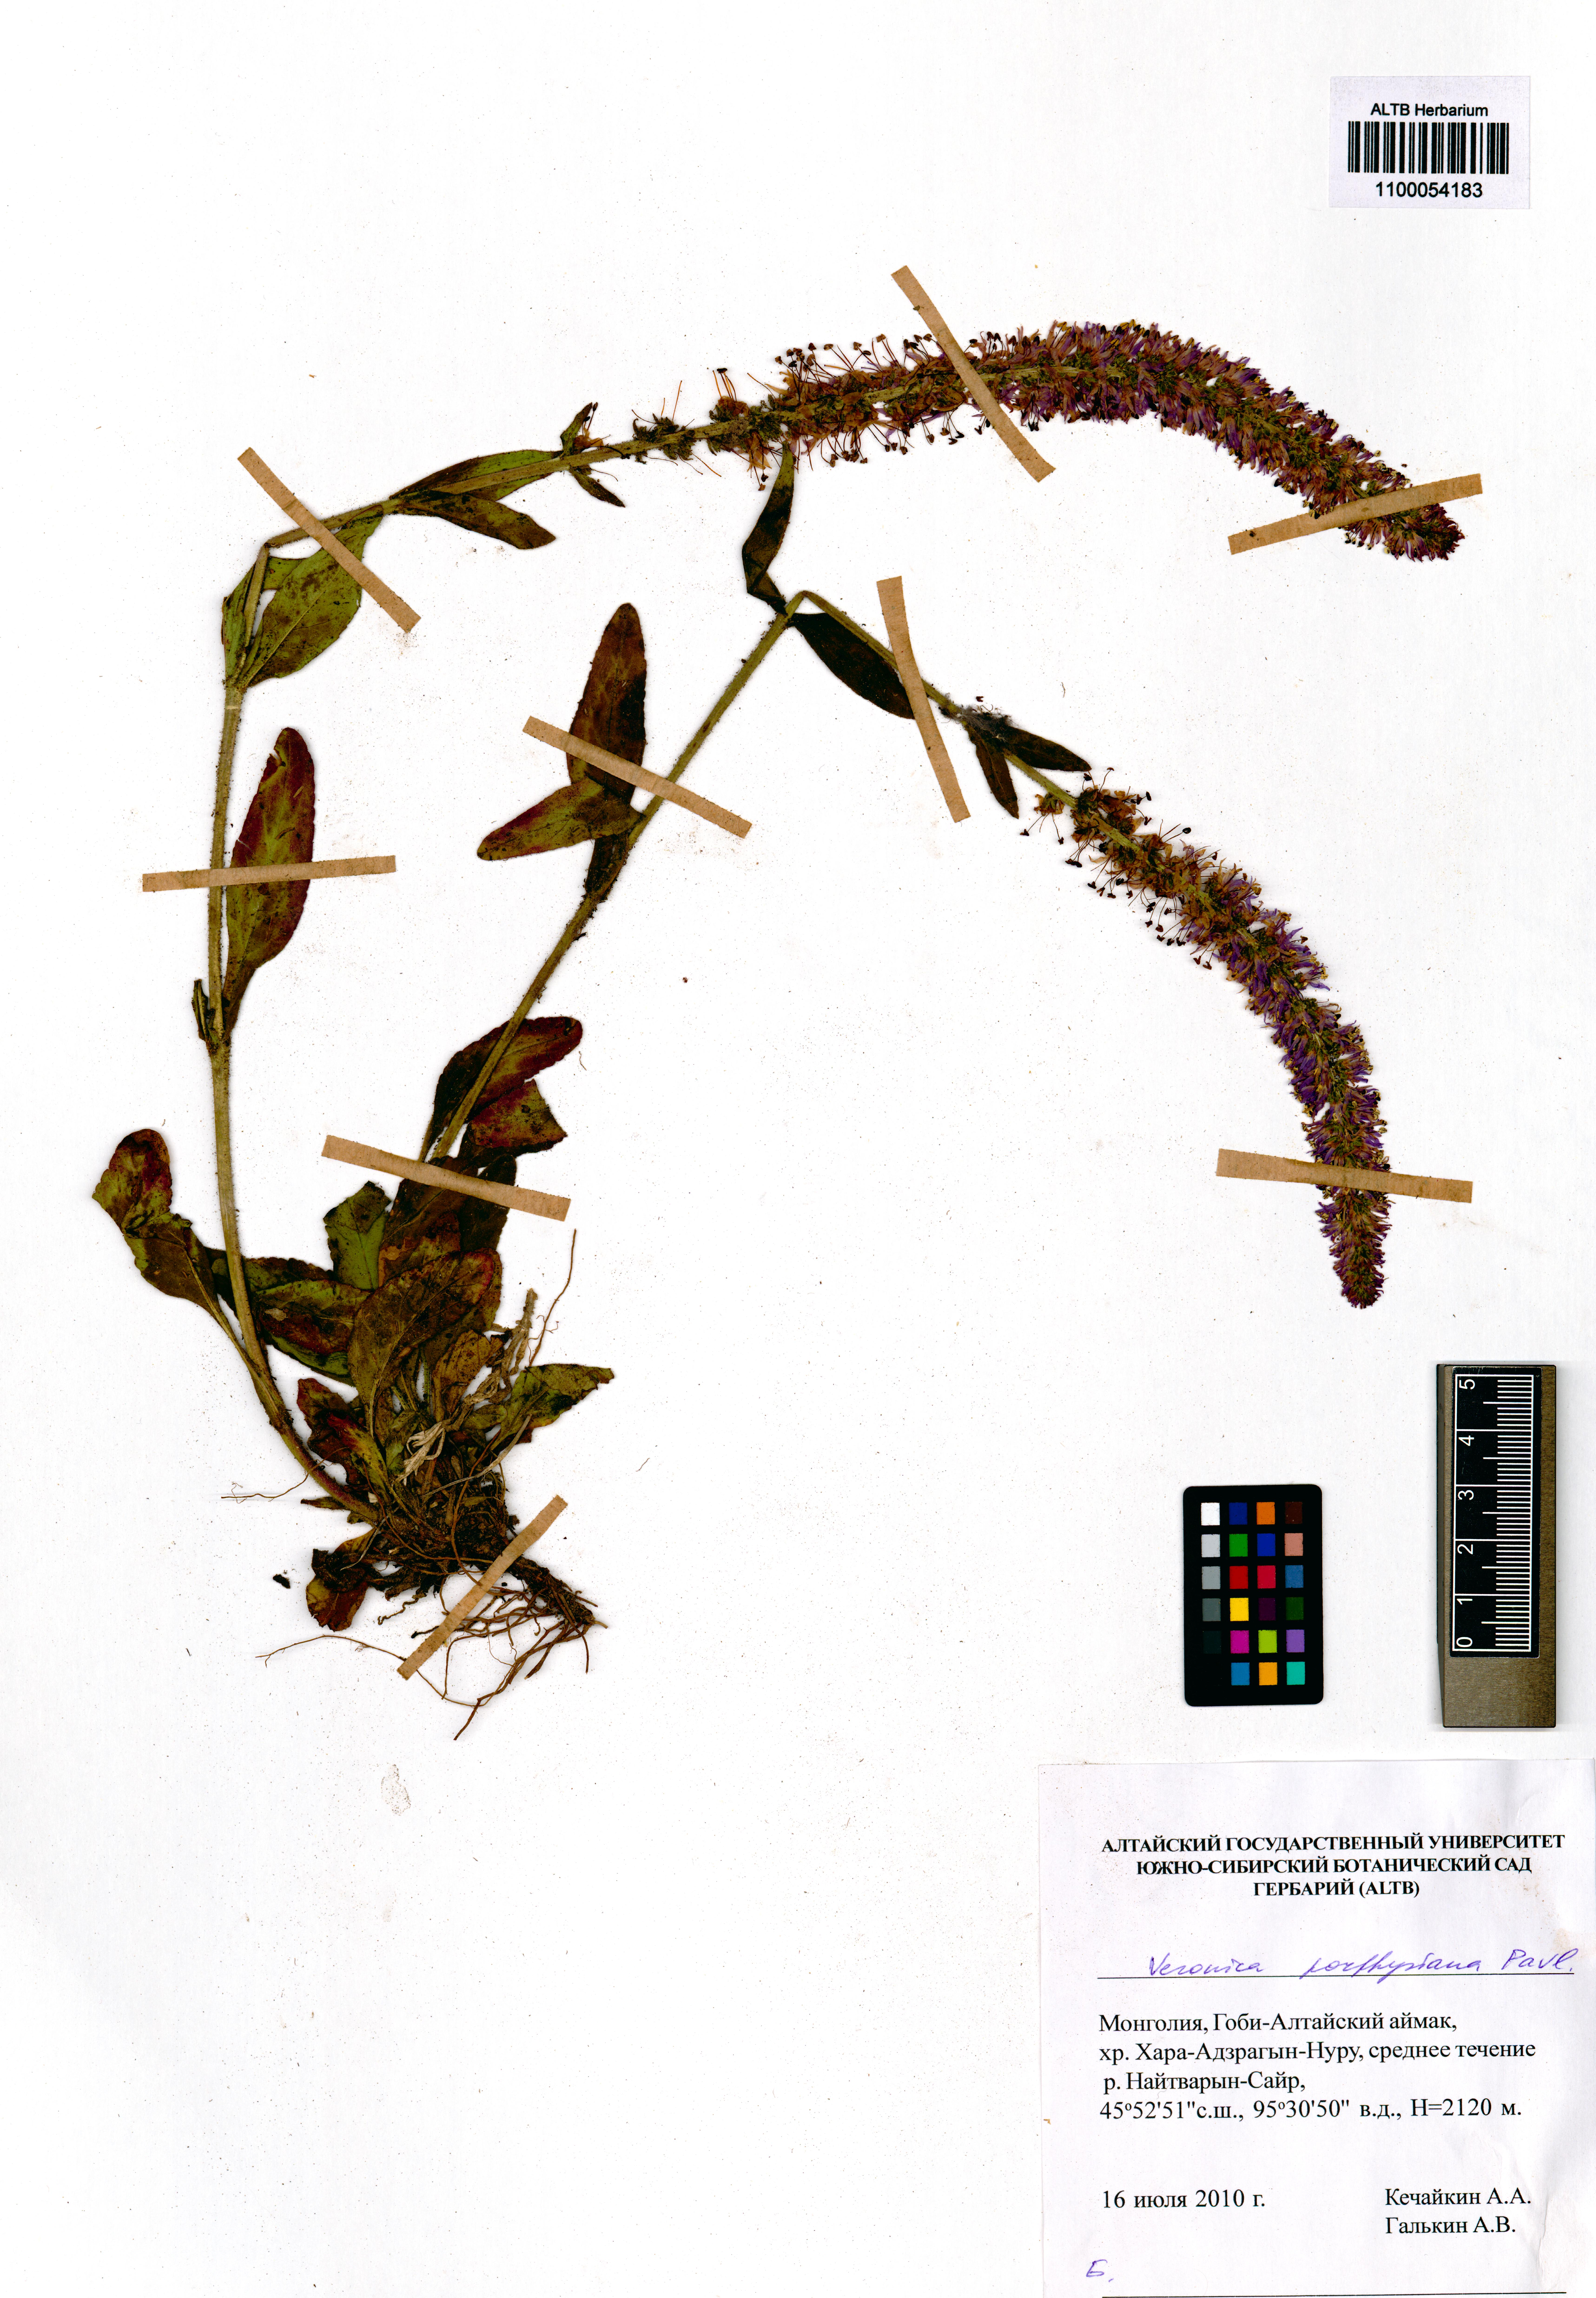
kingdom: Plantae
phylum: Tracheophyta
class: Magnoliopsida
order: Lamiales
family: Plantaginaceae
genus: Veronica
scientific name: Veronica porphyriana
